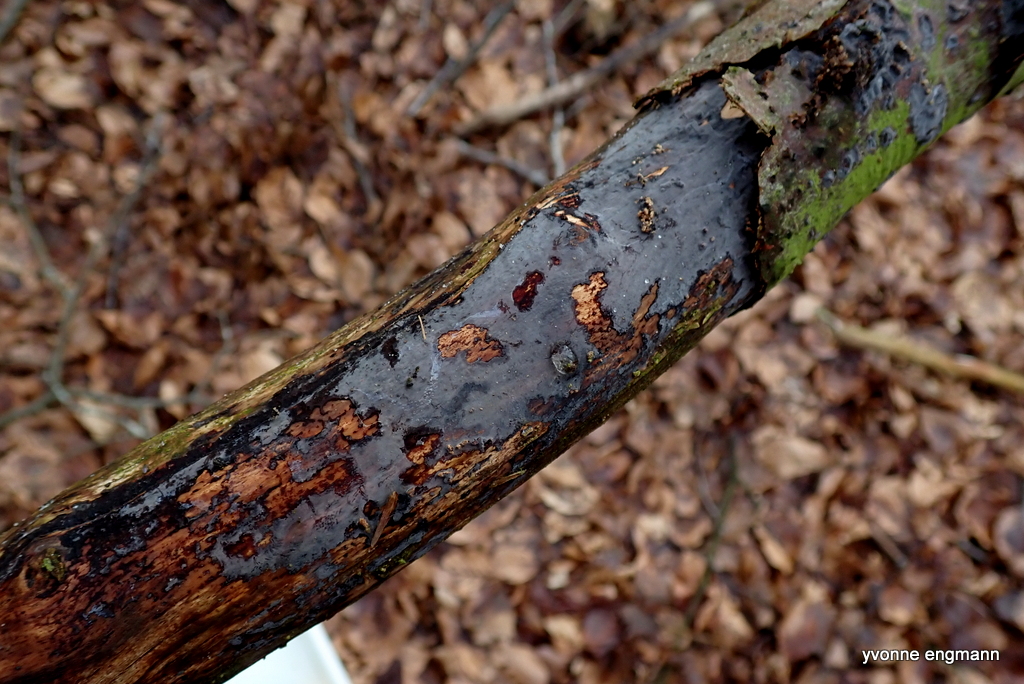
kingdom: Fungi
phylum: Basidiomycota
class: Agaricomycetes
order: Russulales
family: Peniophoraceae
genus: Peniophora
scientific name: Peniophora
